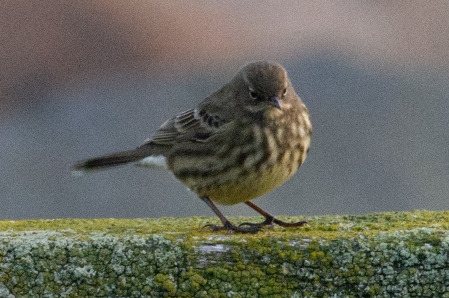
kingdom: Animalia
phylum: Chordata
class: Aves
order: Passeriformes
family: Motacillidae
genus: Anthus
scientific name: Anthus petrosus
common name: Skærpiber
